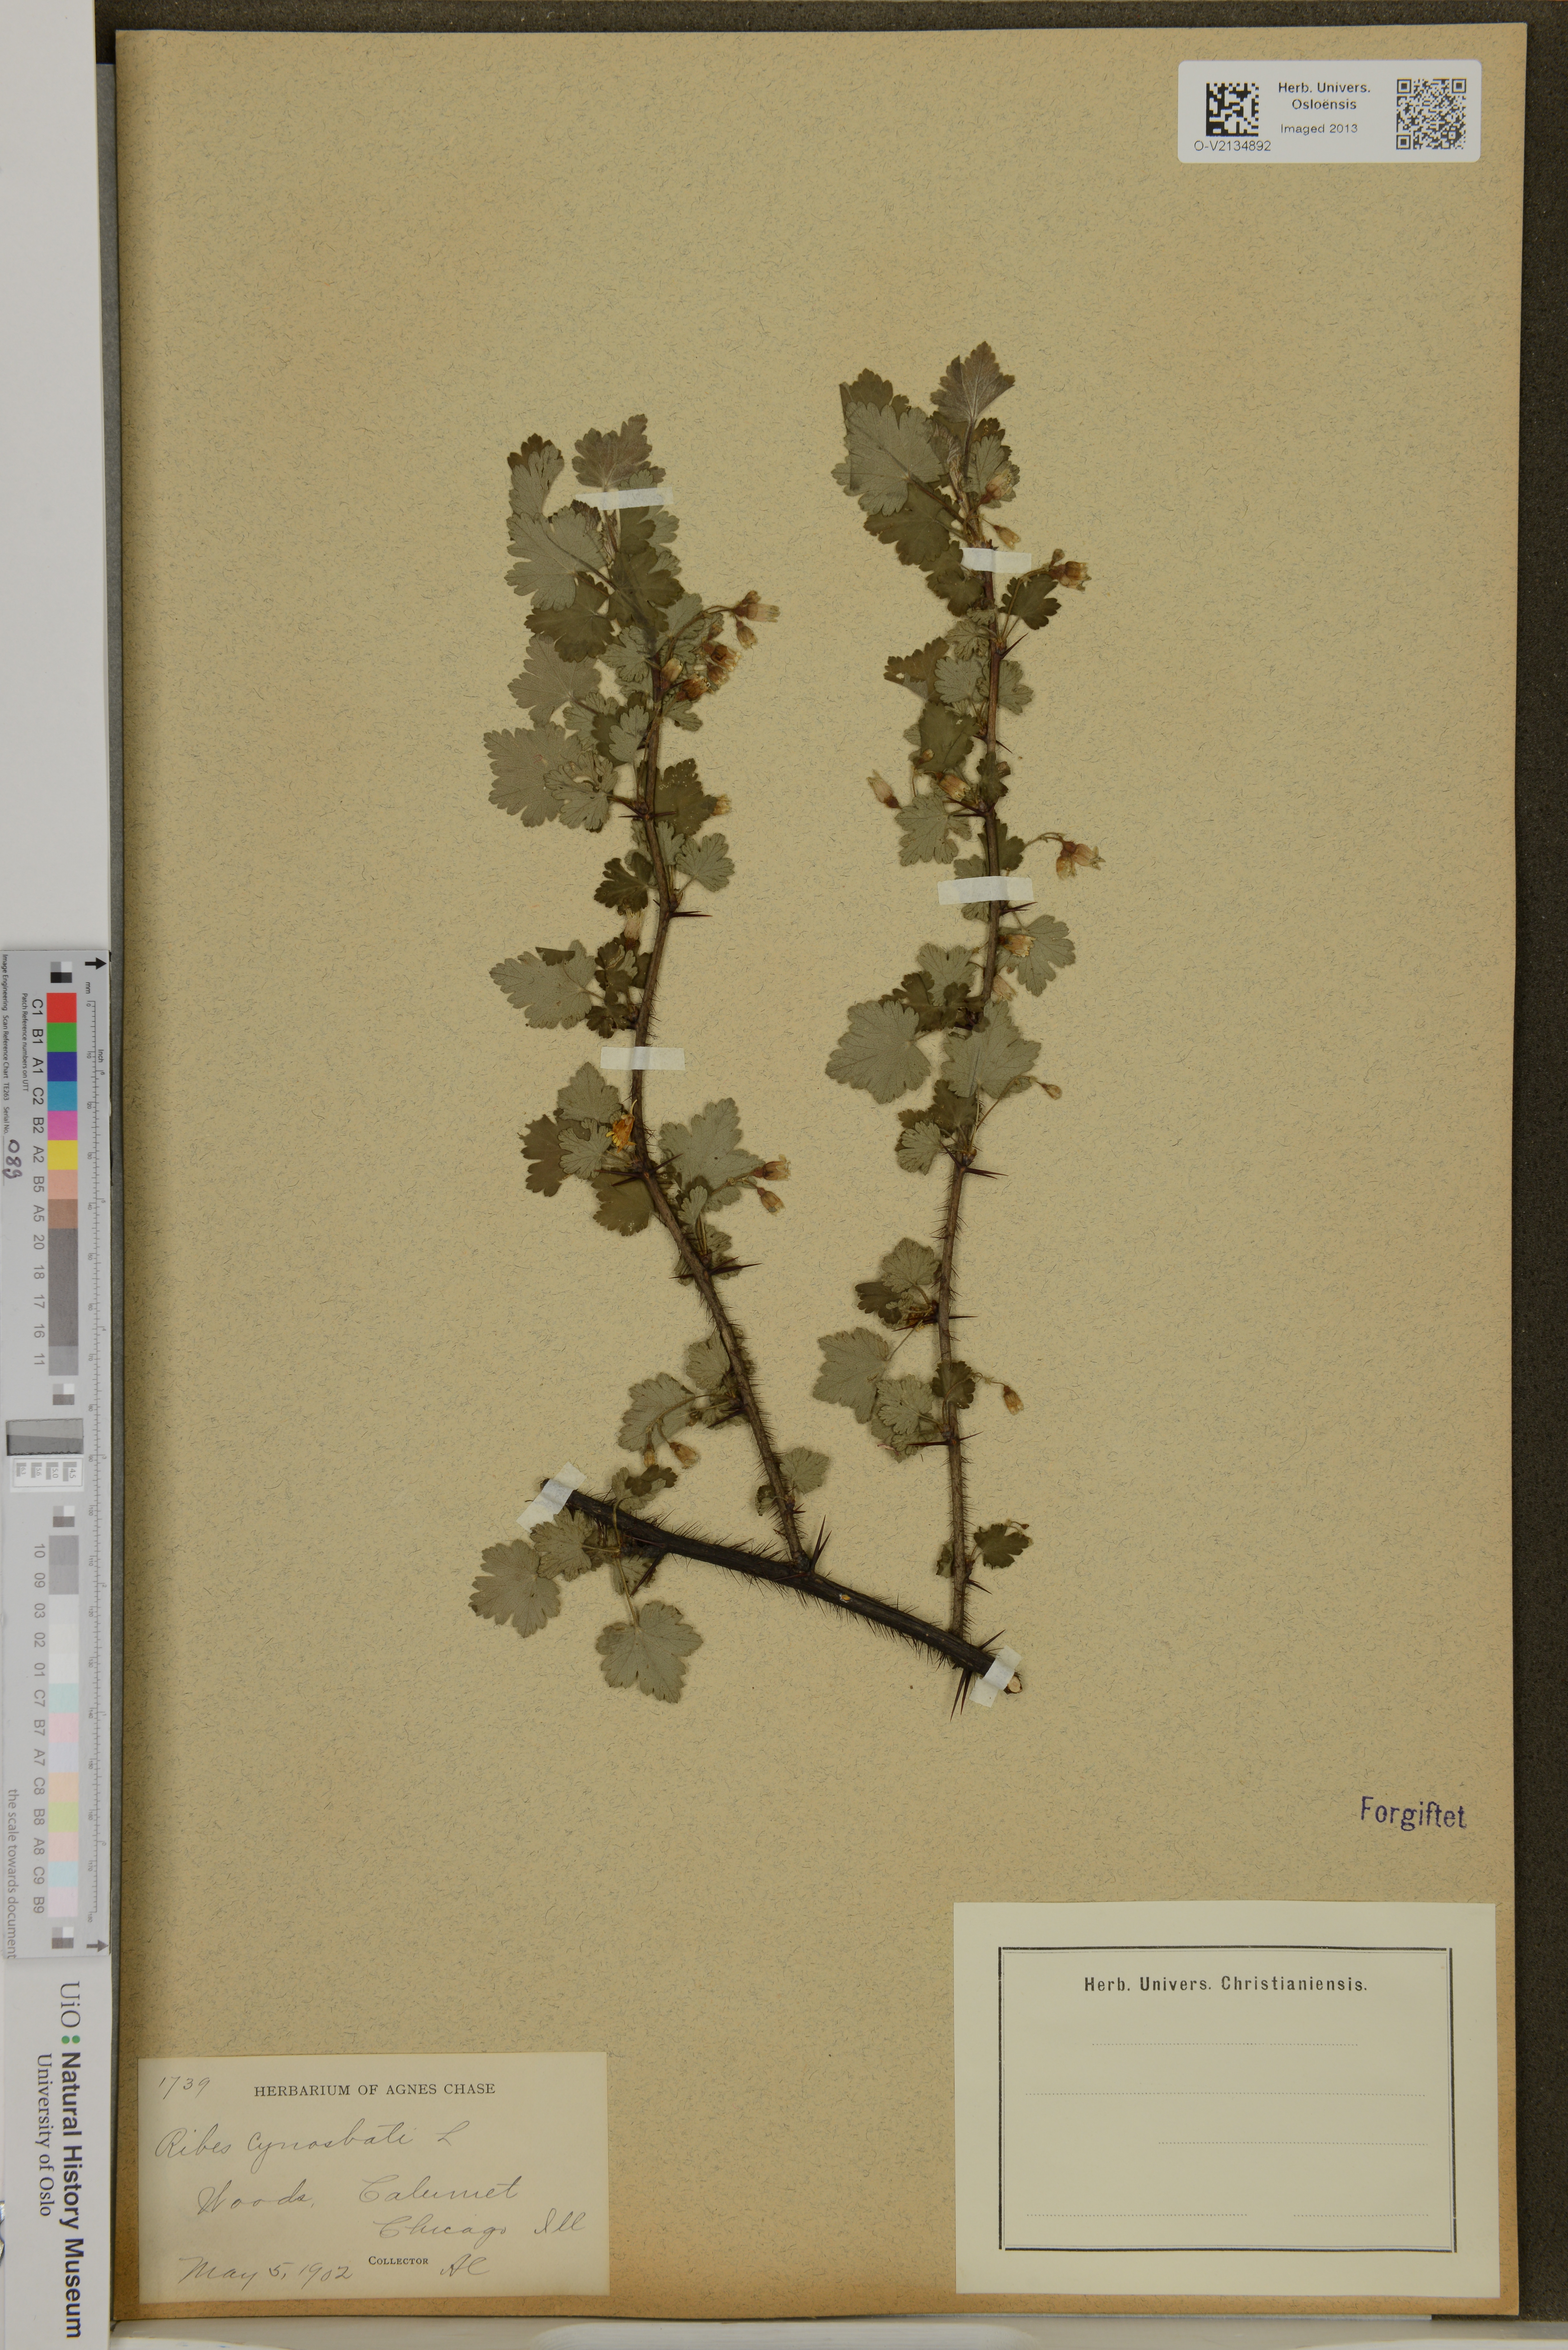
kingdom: Plantae
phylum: Tracheophyta
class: Magnoliopsida
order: Saxifragales
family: Grossulariaceae
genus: Ribes
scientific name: Ribes cynosbati
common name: American gooseberry
